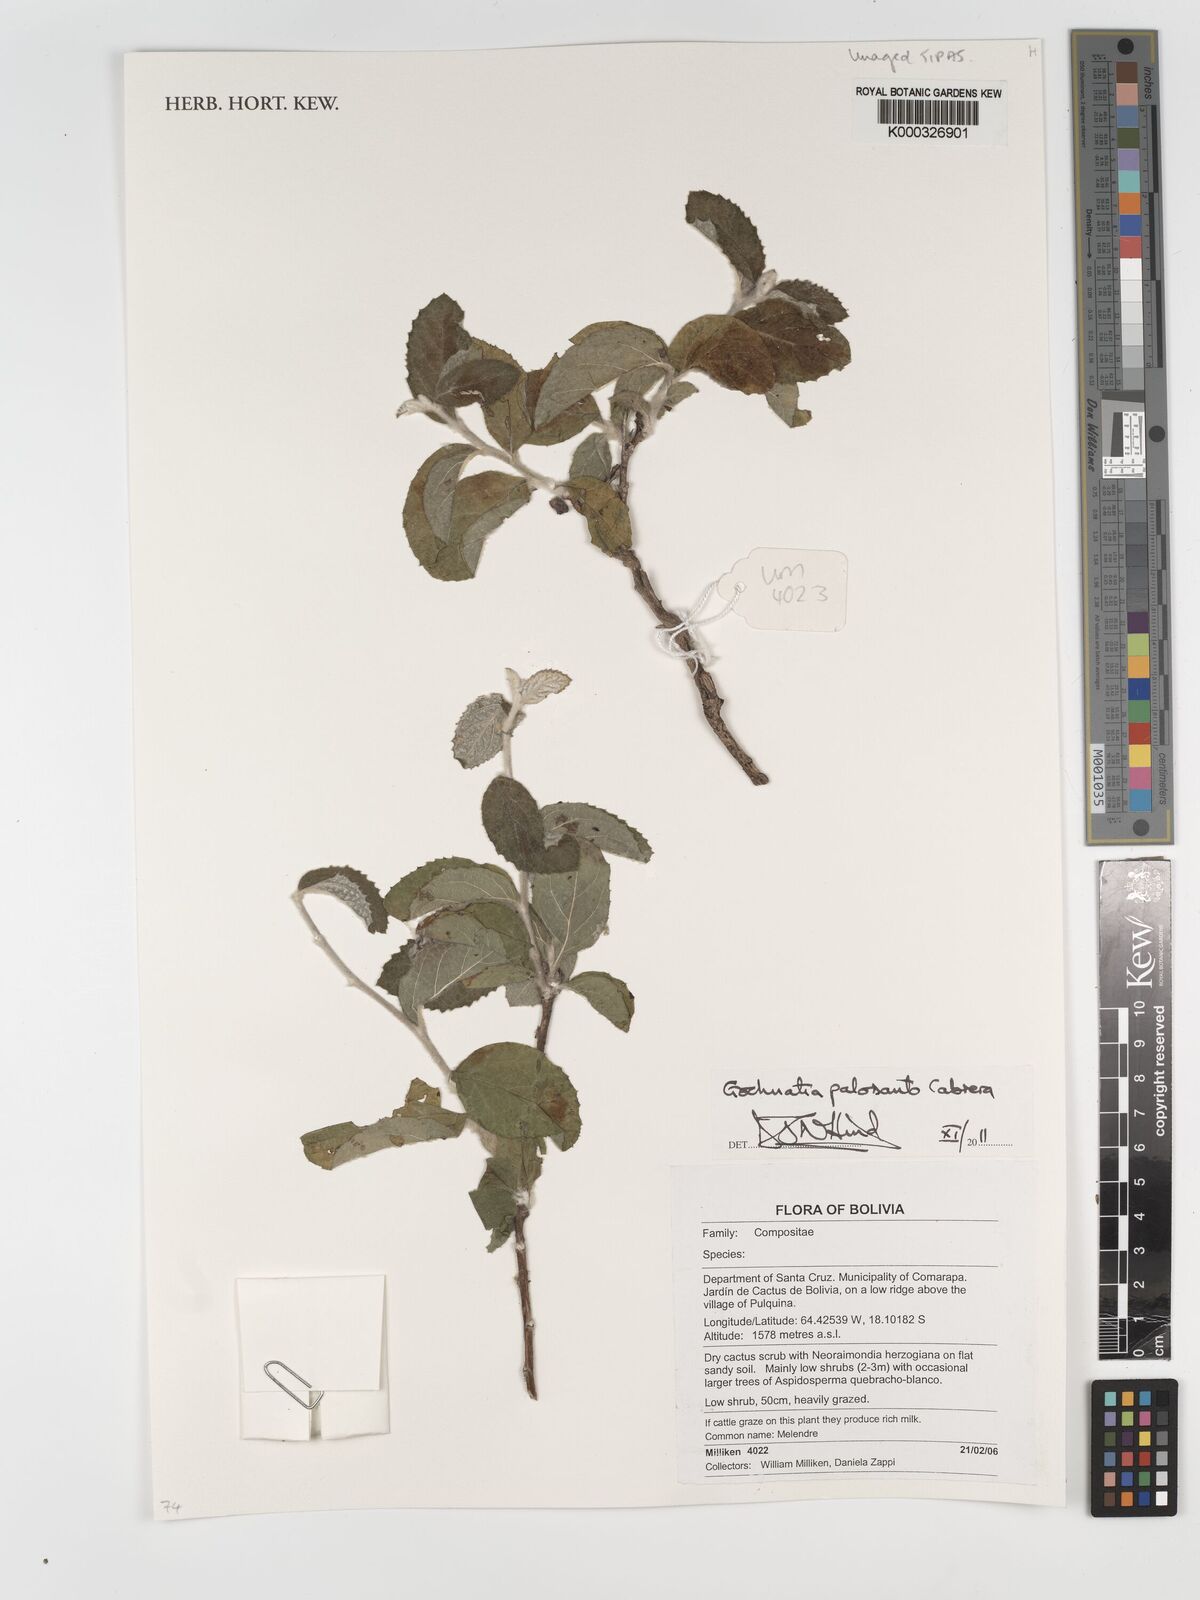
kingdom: Plantae
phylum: Tracheophyta
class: Magnoliopsida
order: Asterales
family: Asteraceae
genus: Gochnatia
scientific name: Gochnatia palosanto
